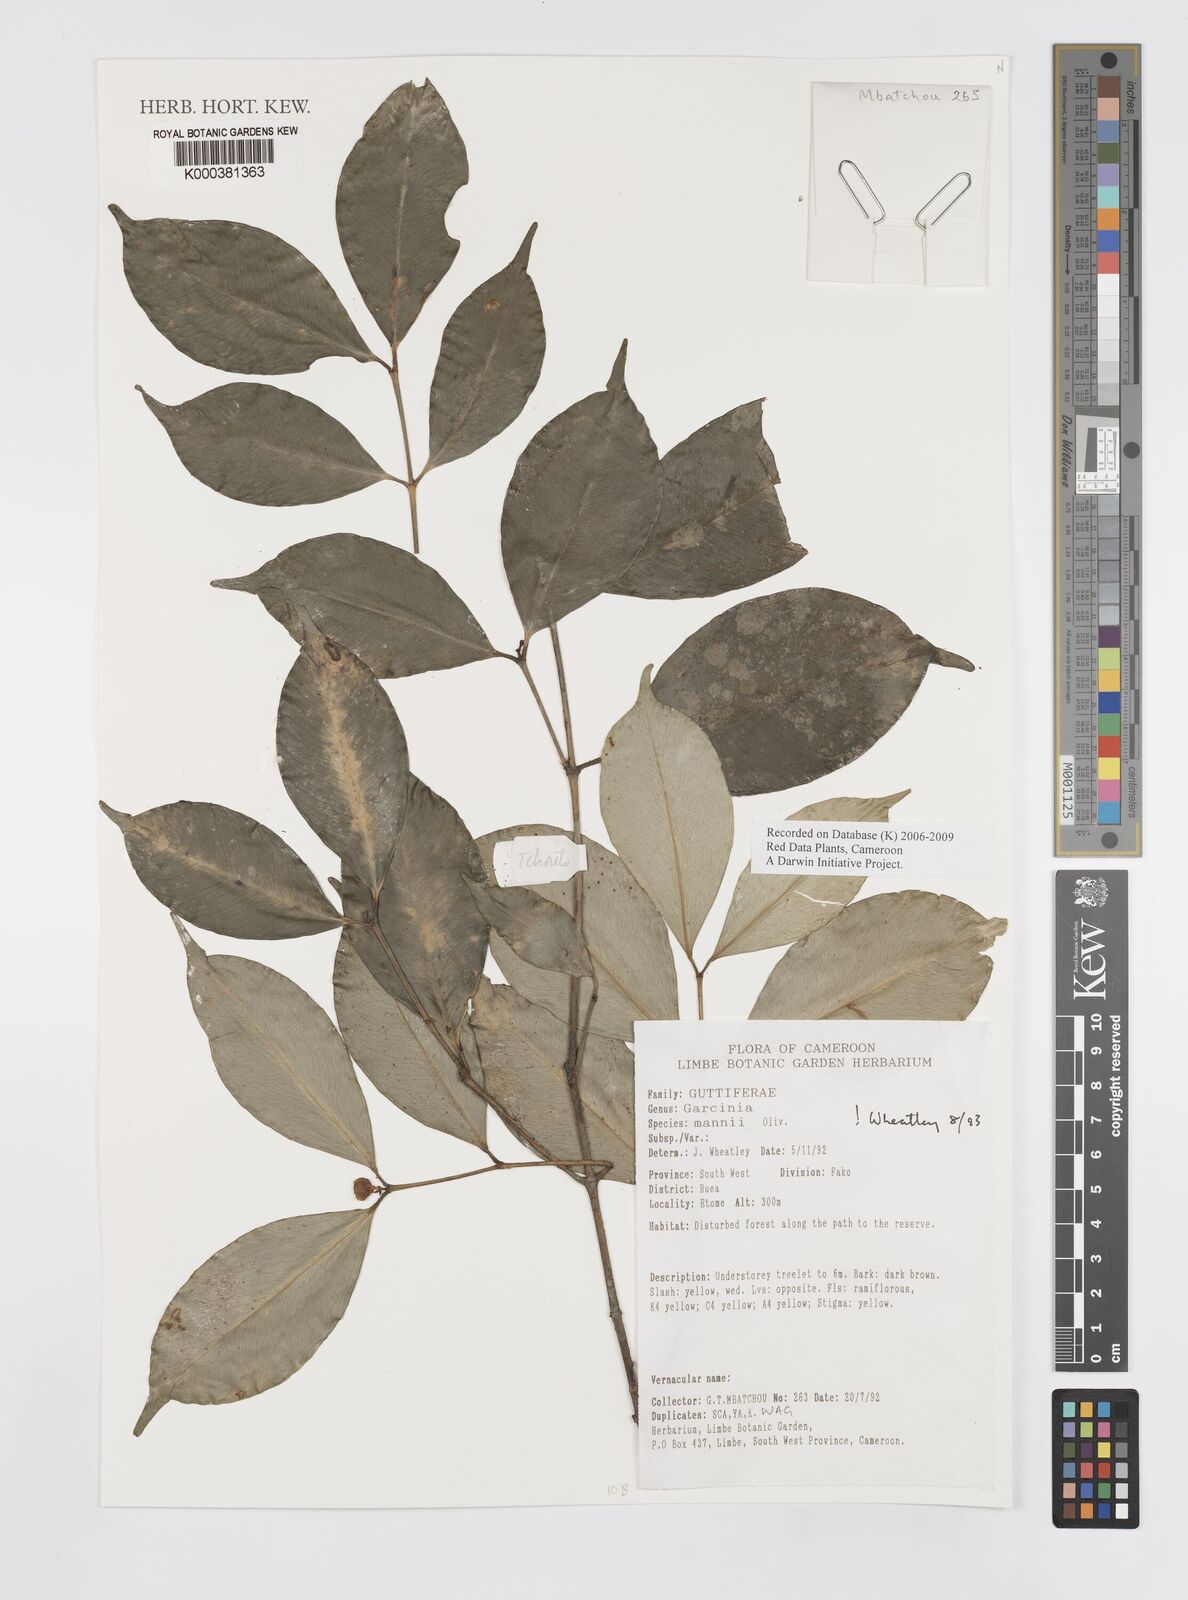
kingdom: Plantae
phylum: Tracheophyta
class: Magnoliopsida
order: Malpighiales
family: Clusiaceae
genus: Garcinia
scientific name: Garcinia mannii
